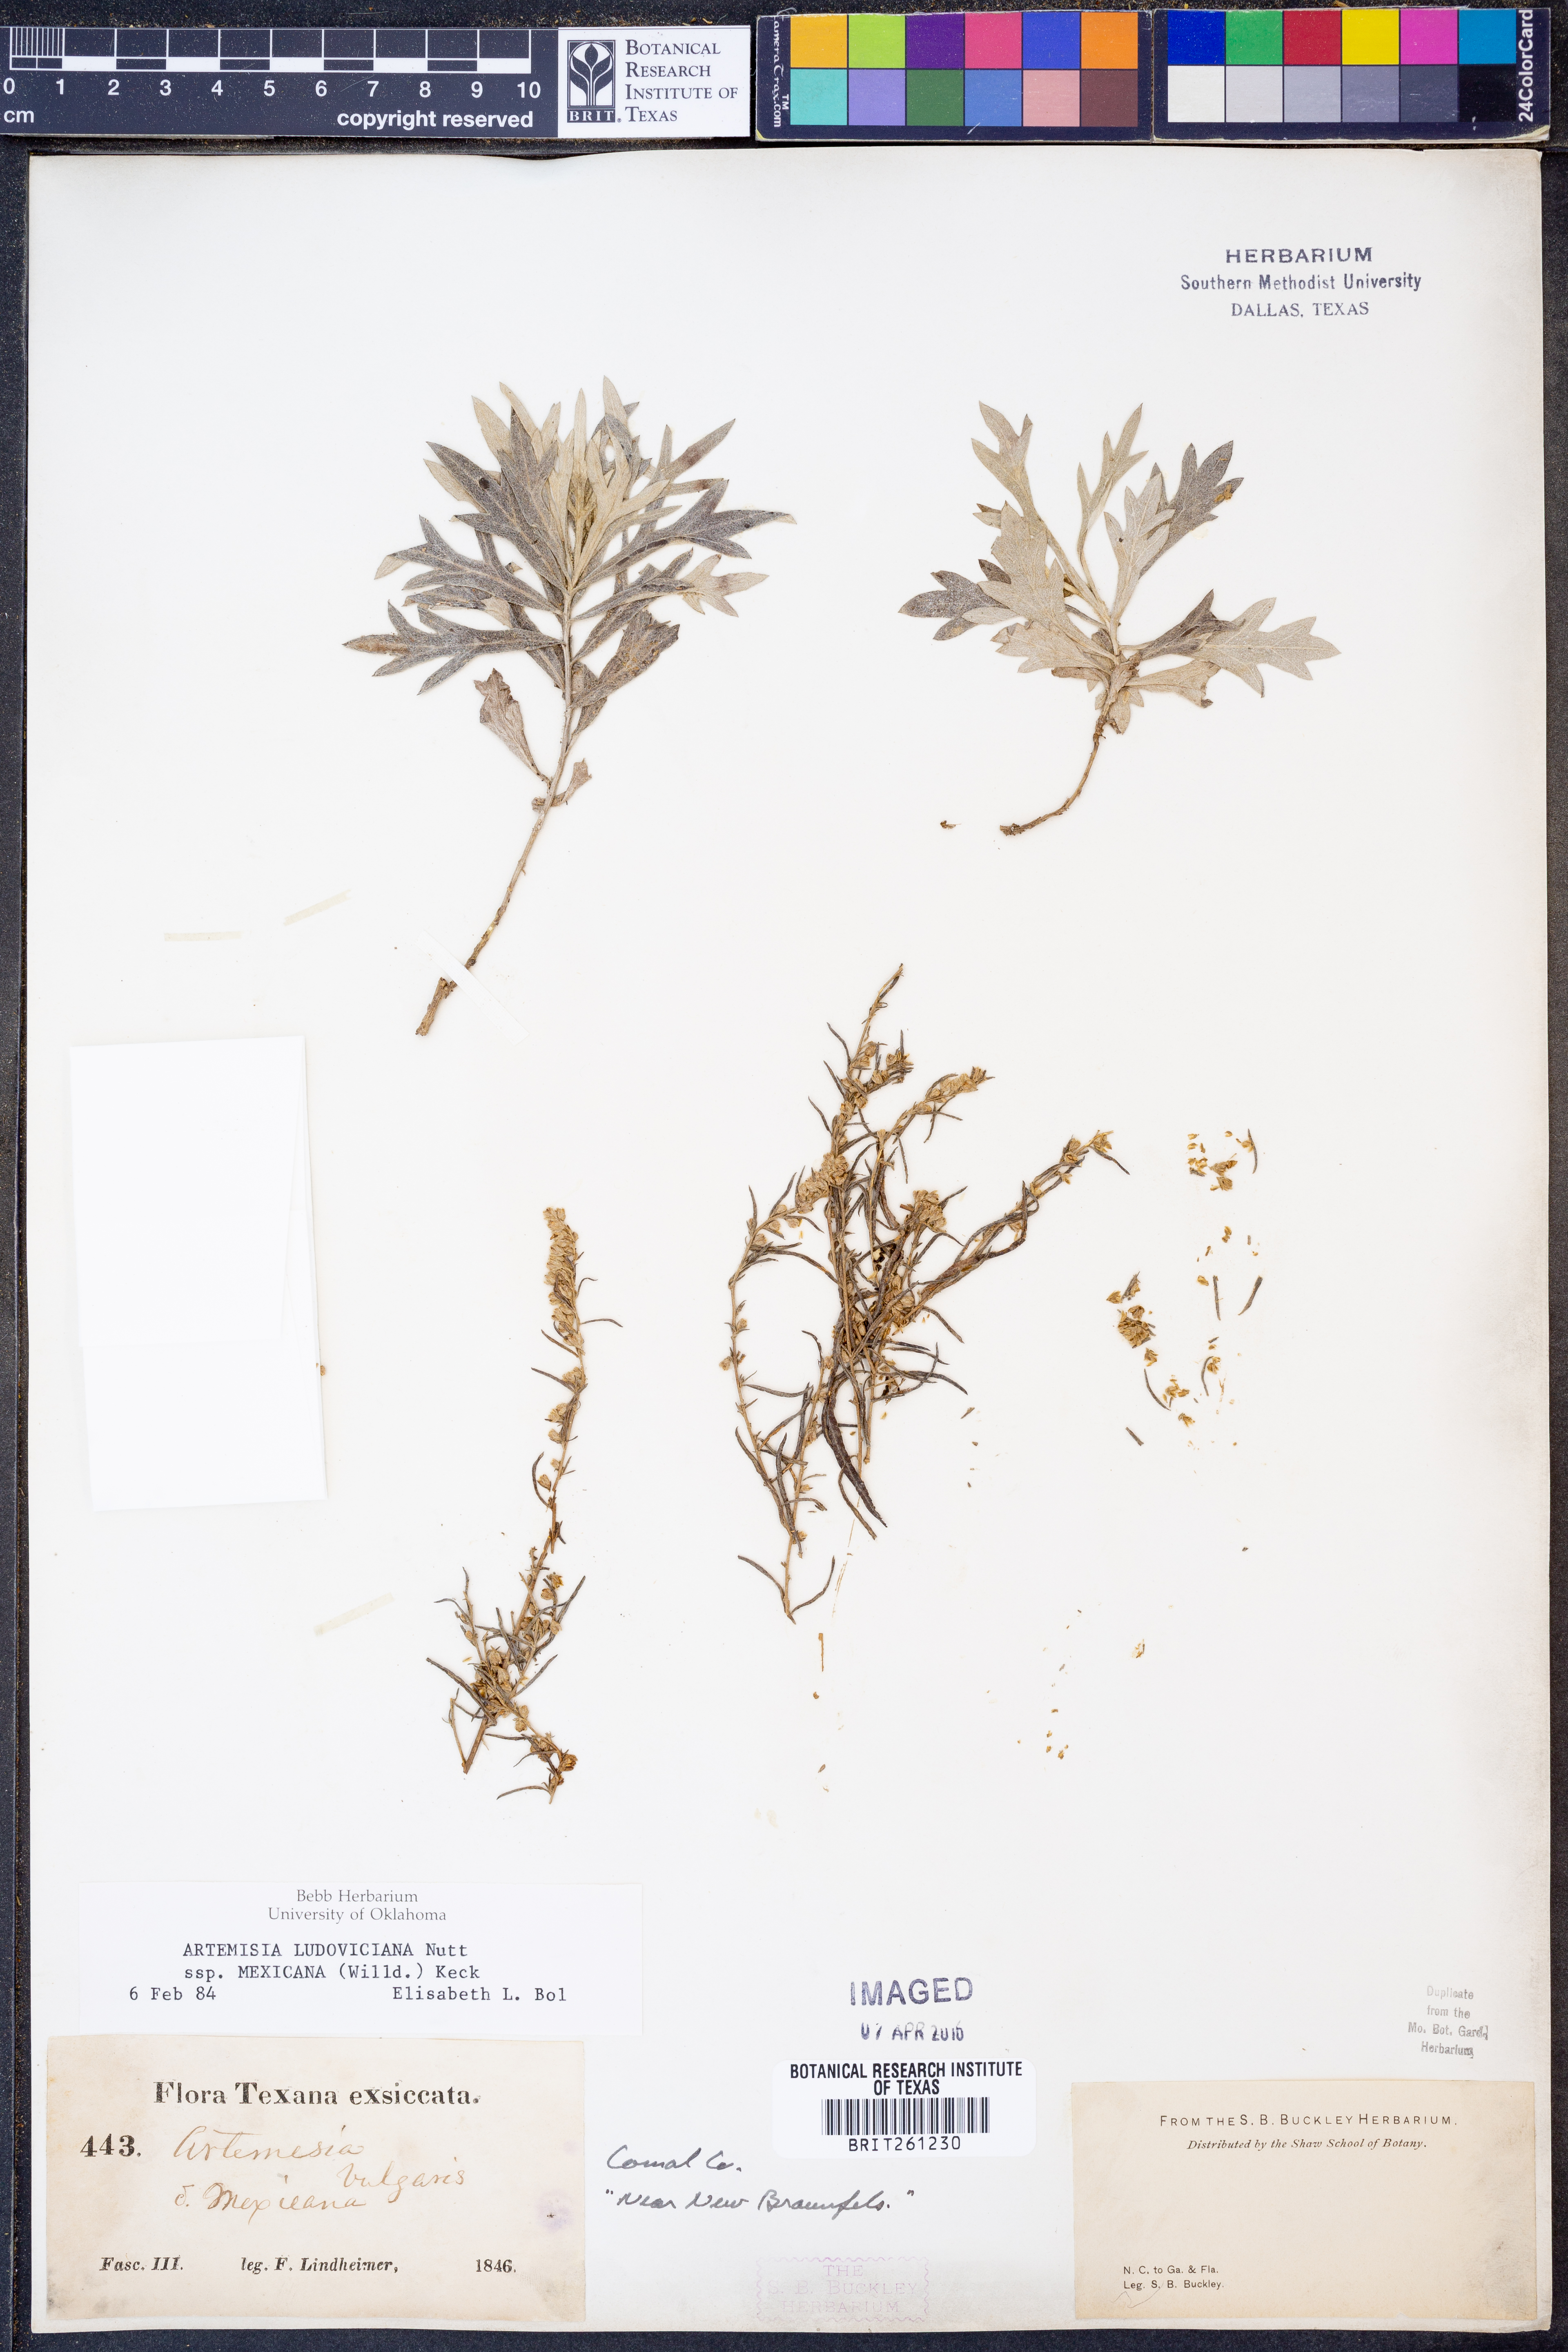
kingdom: Plantae
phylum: Tracheophyta
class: Magnoliopsida
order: Asterales
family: Asteraceae
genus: Artemisia
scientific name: Artemisia ludoviciana
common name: Western mugwort
